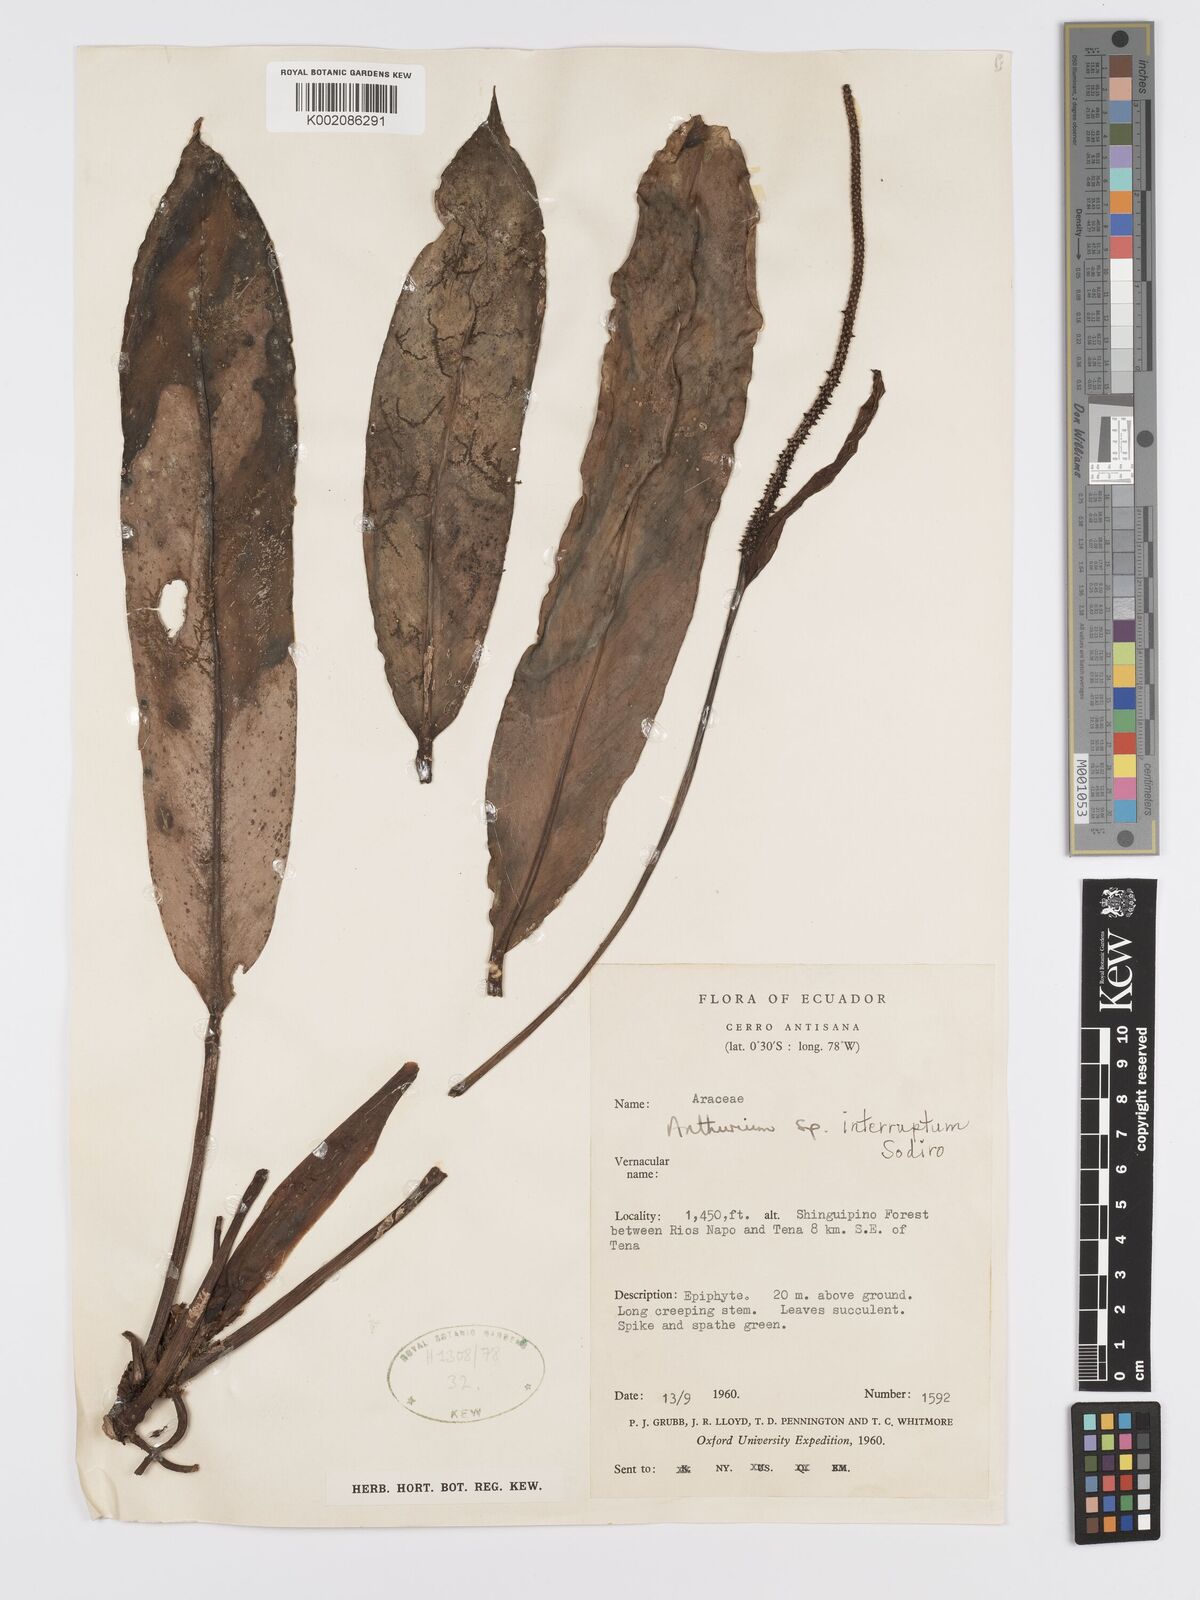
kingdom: Plantae
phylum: Tracheophyta
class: Liliopsida
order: Alismatales
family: Araceae
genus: Anthurium
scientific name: Anthurium interruptum
